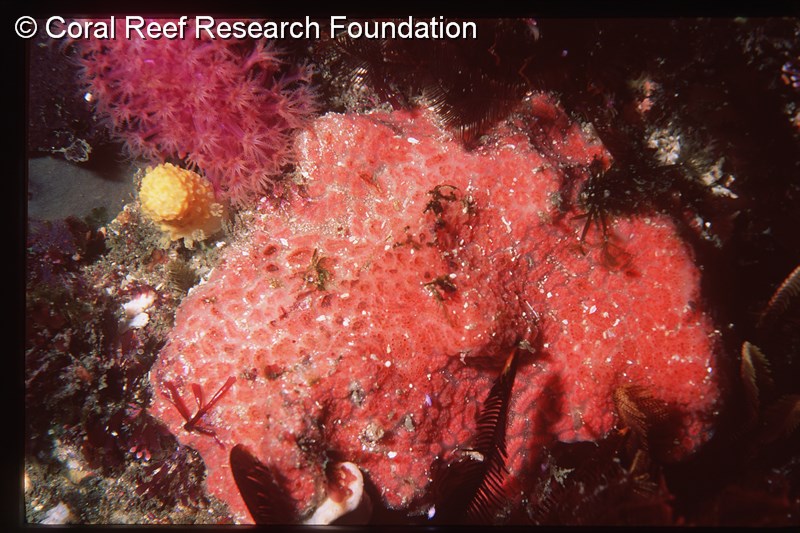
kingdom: Animalia
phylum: Chordata
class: Ascidiacea
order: Aplousobranchia
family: Polyclinidae
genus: Aplidium
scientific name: Aplidium mernooensis
